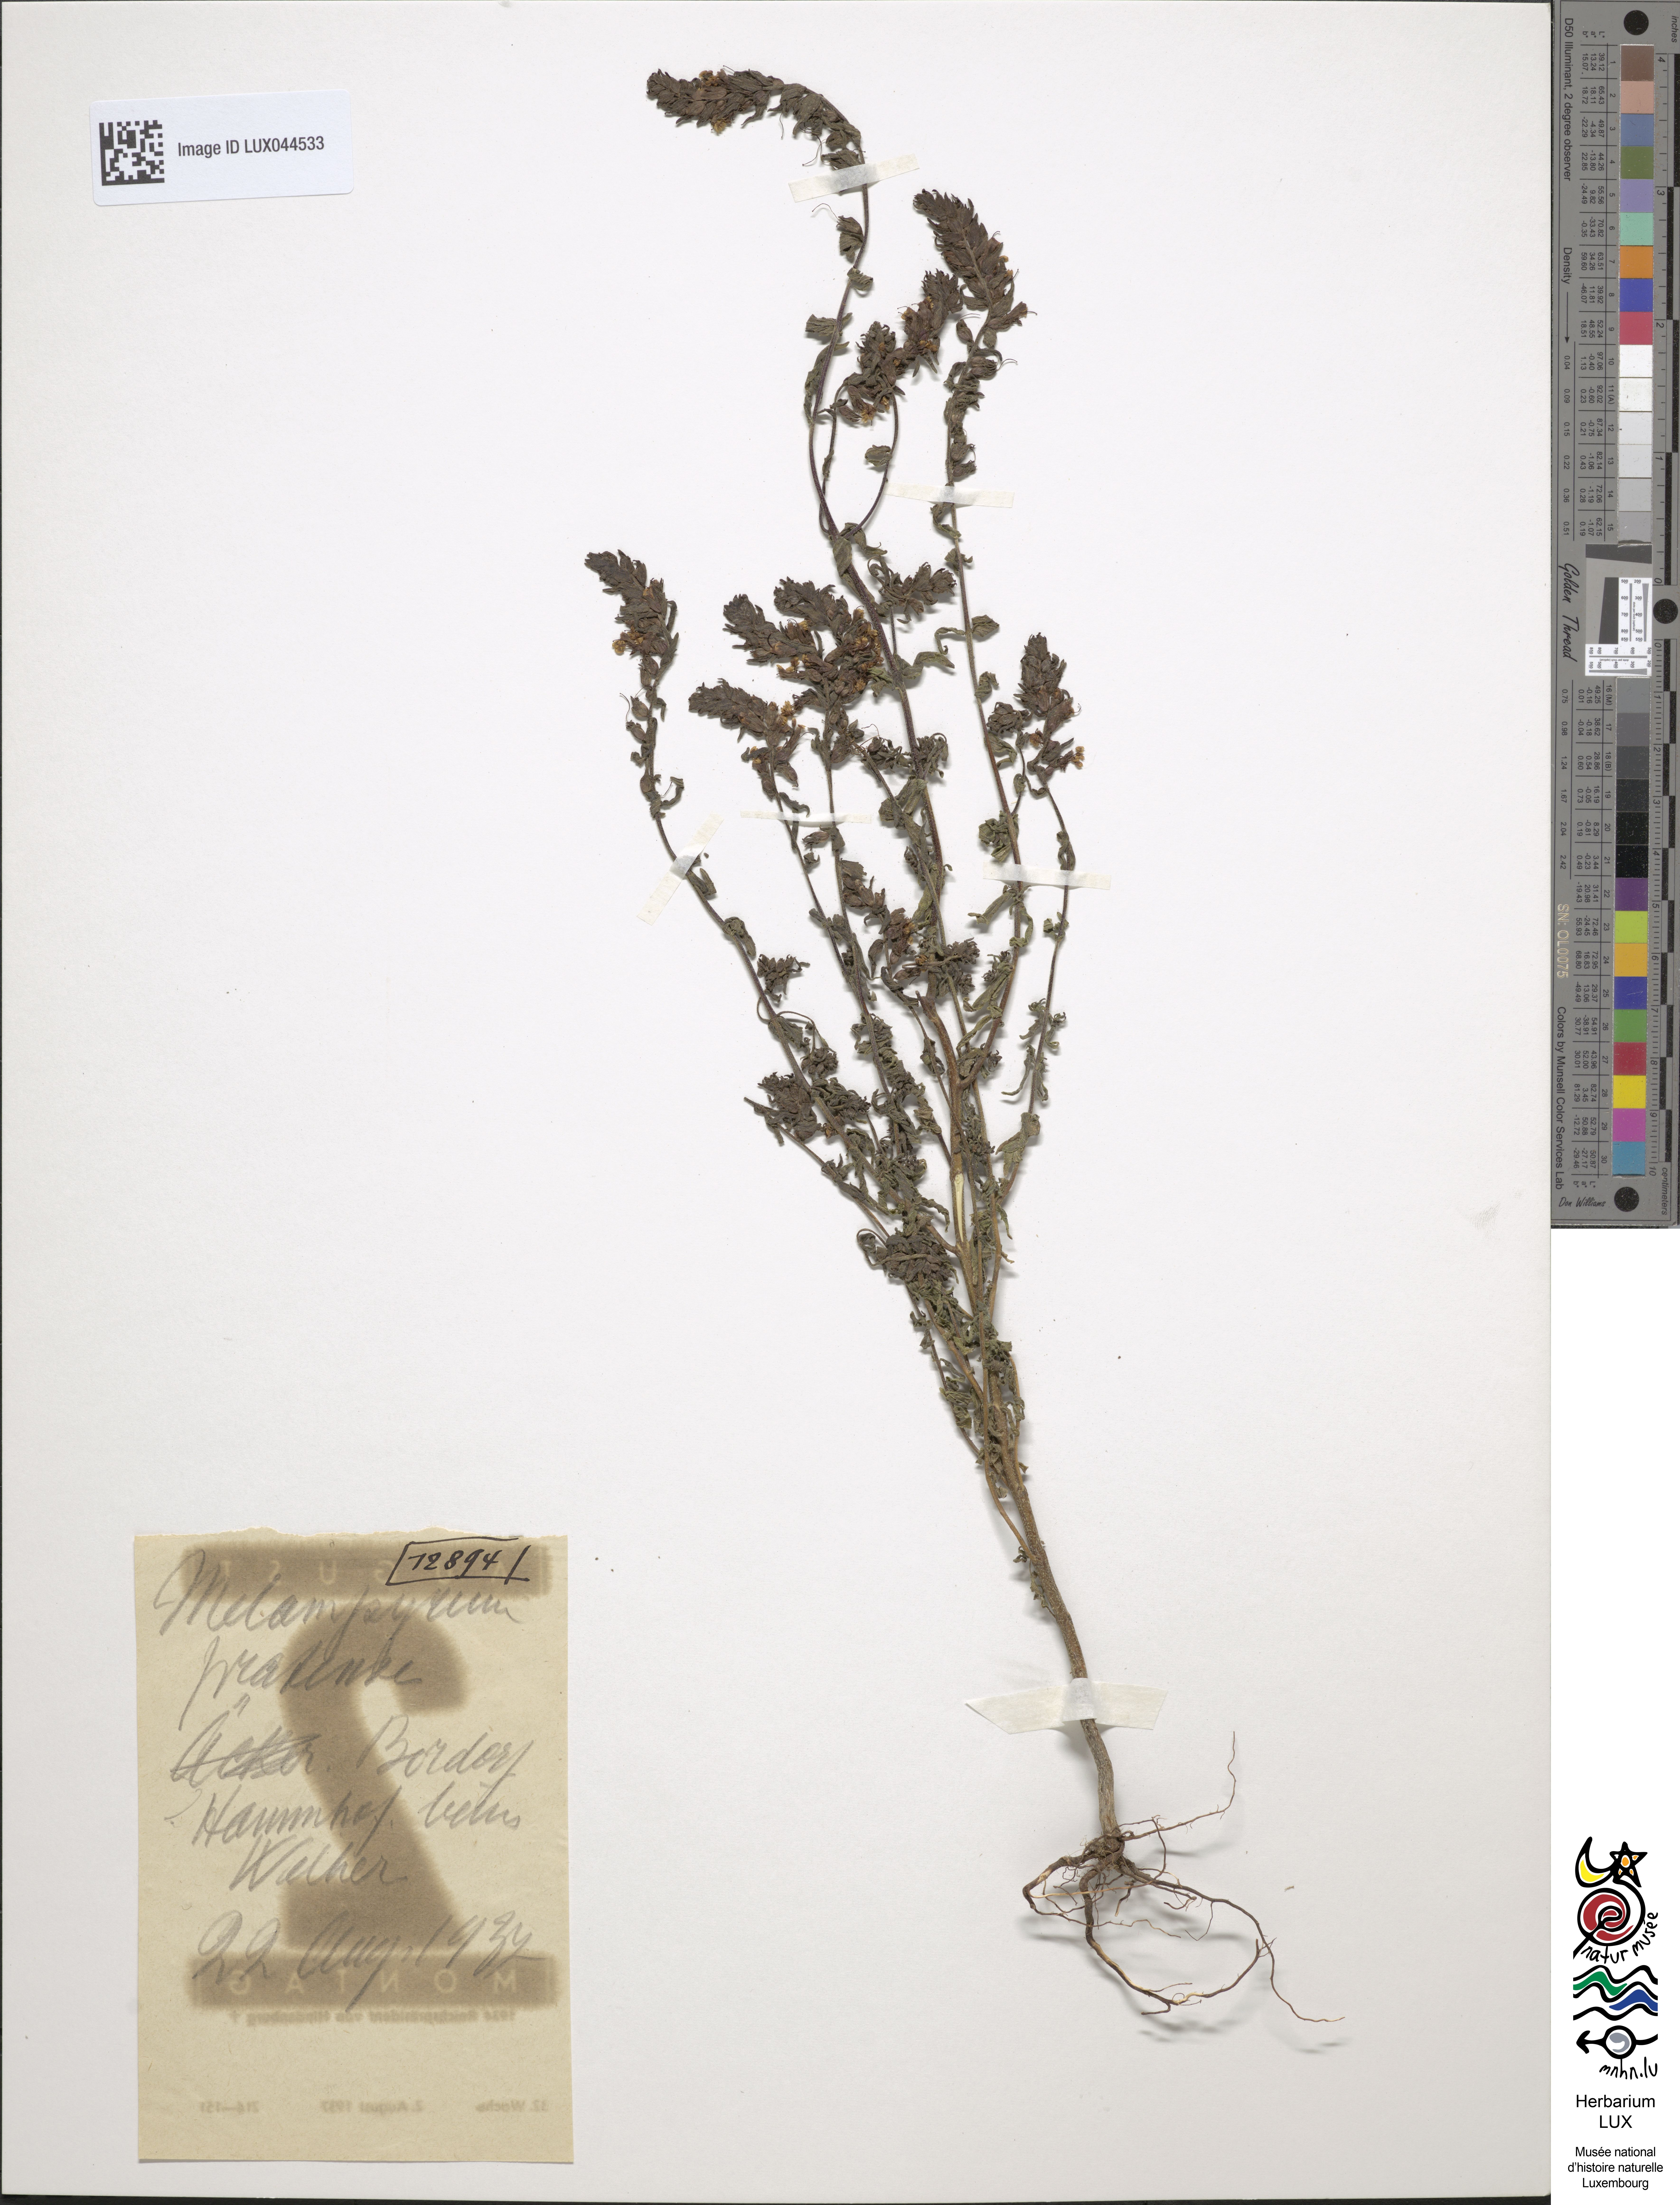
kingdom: Plantae
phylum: Tracheophyta
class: Magnoliopsida
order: Lamiales
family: Orobanchaceae
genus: Melampyrum
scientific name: Melampyrum pratense
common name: Common cow-wheat
